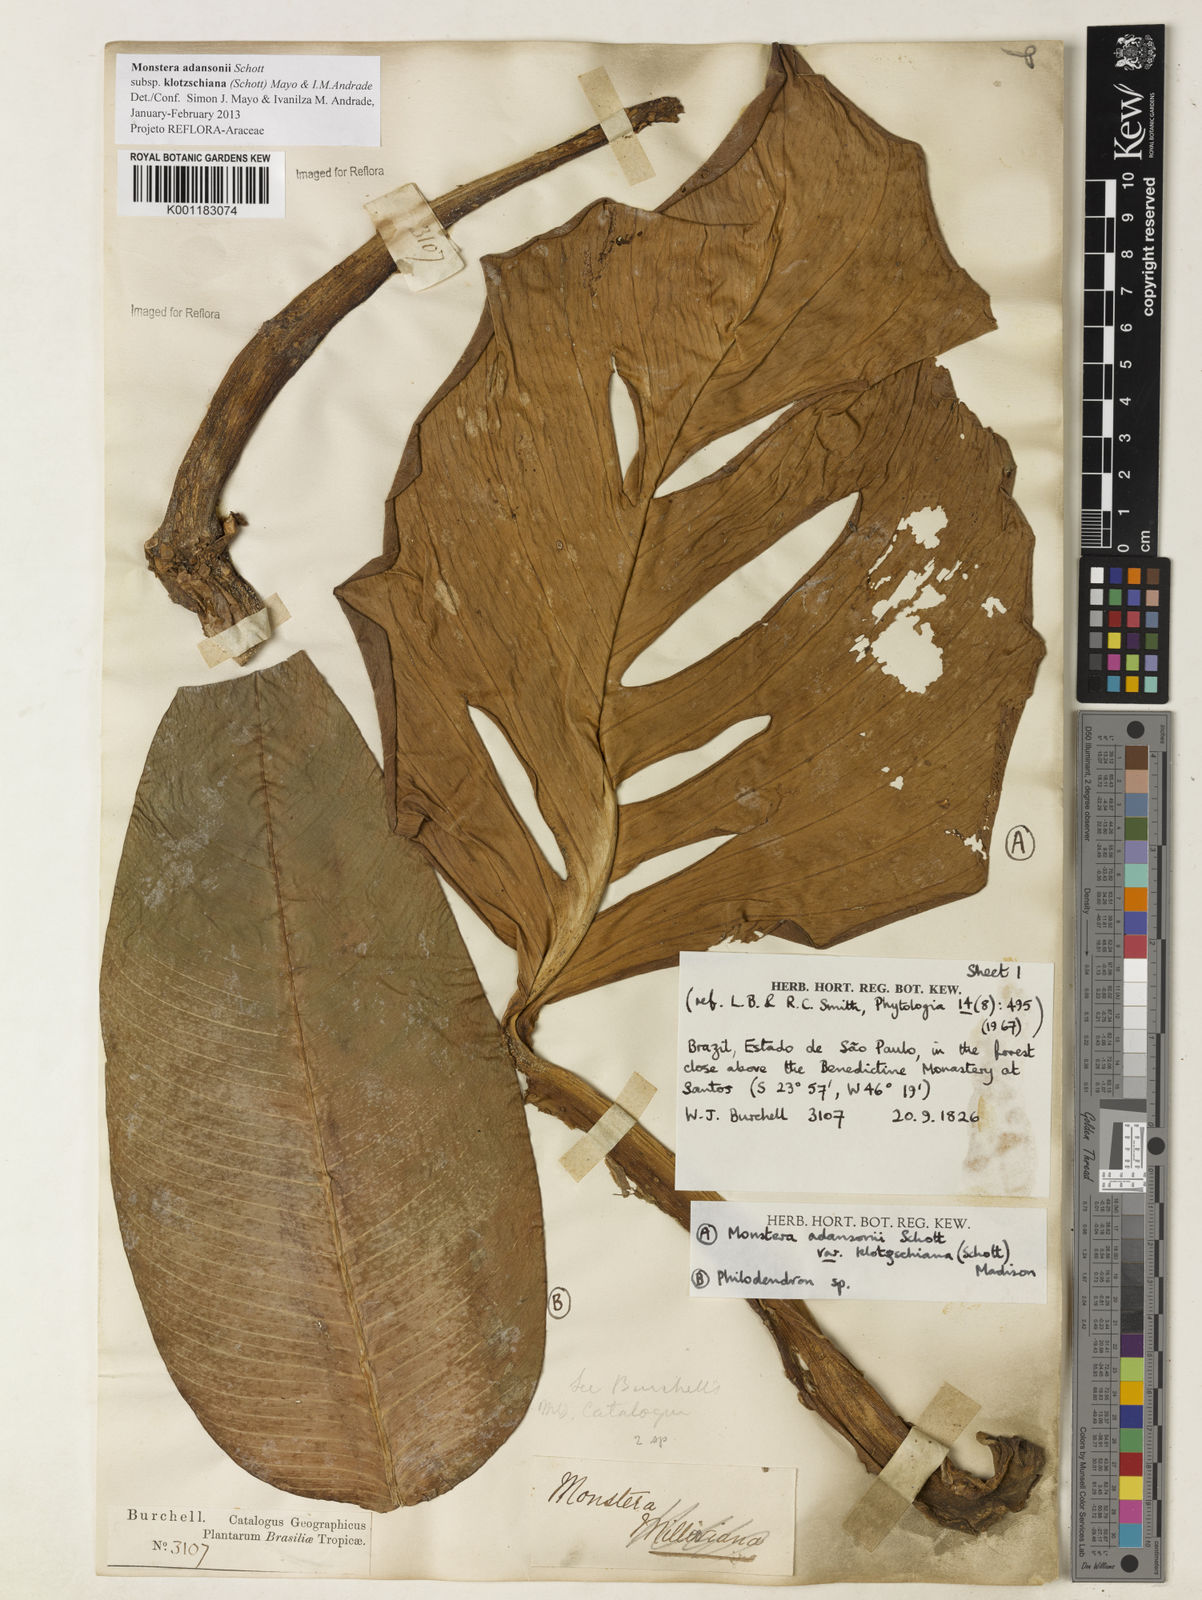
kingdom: Plantae
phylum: Tracheophyta
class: Liliopsida
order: Alismatales
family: Araceae
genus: Monstera
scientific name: Monstera adansonii
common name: Tarovine
